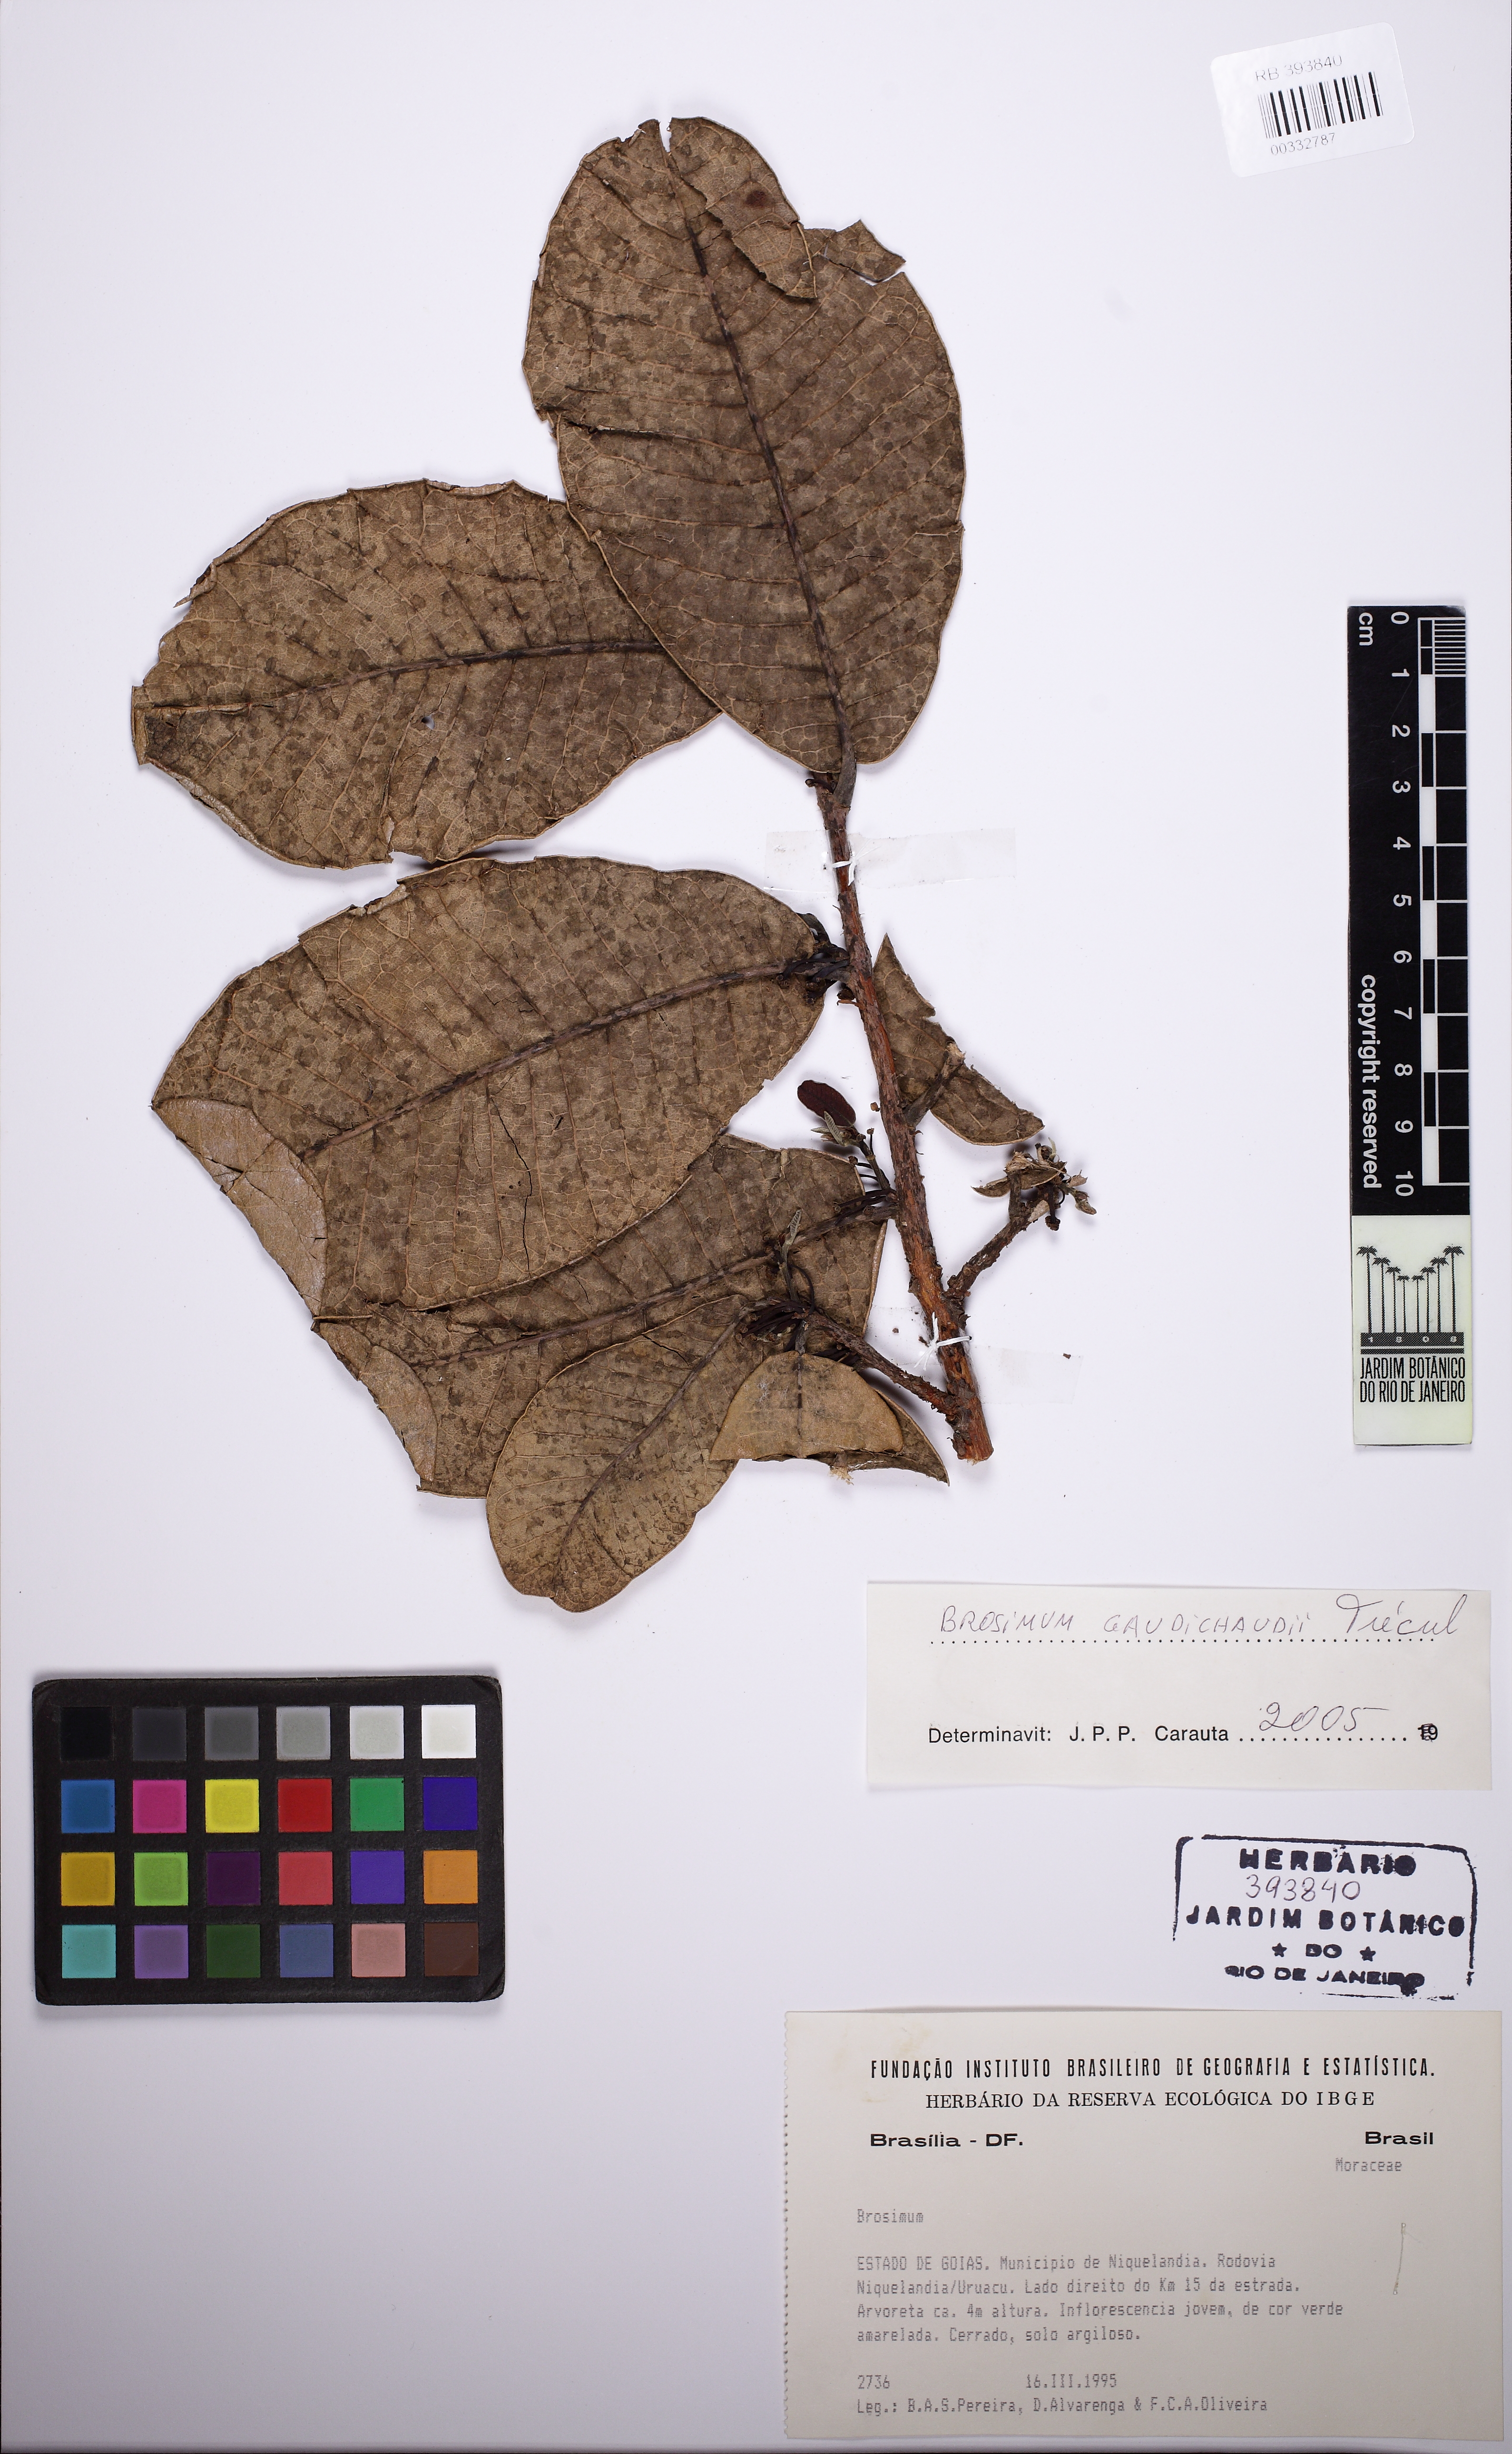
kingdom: Plantae
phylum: Tracheophyta
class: Magnoliopsida
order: Rosales
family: Moraceae
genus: Brosimum
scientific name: Brosimum
